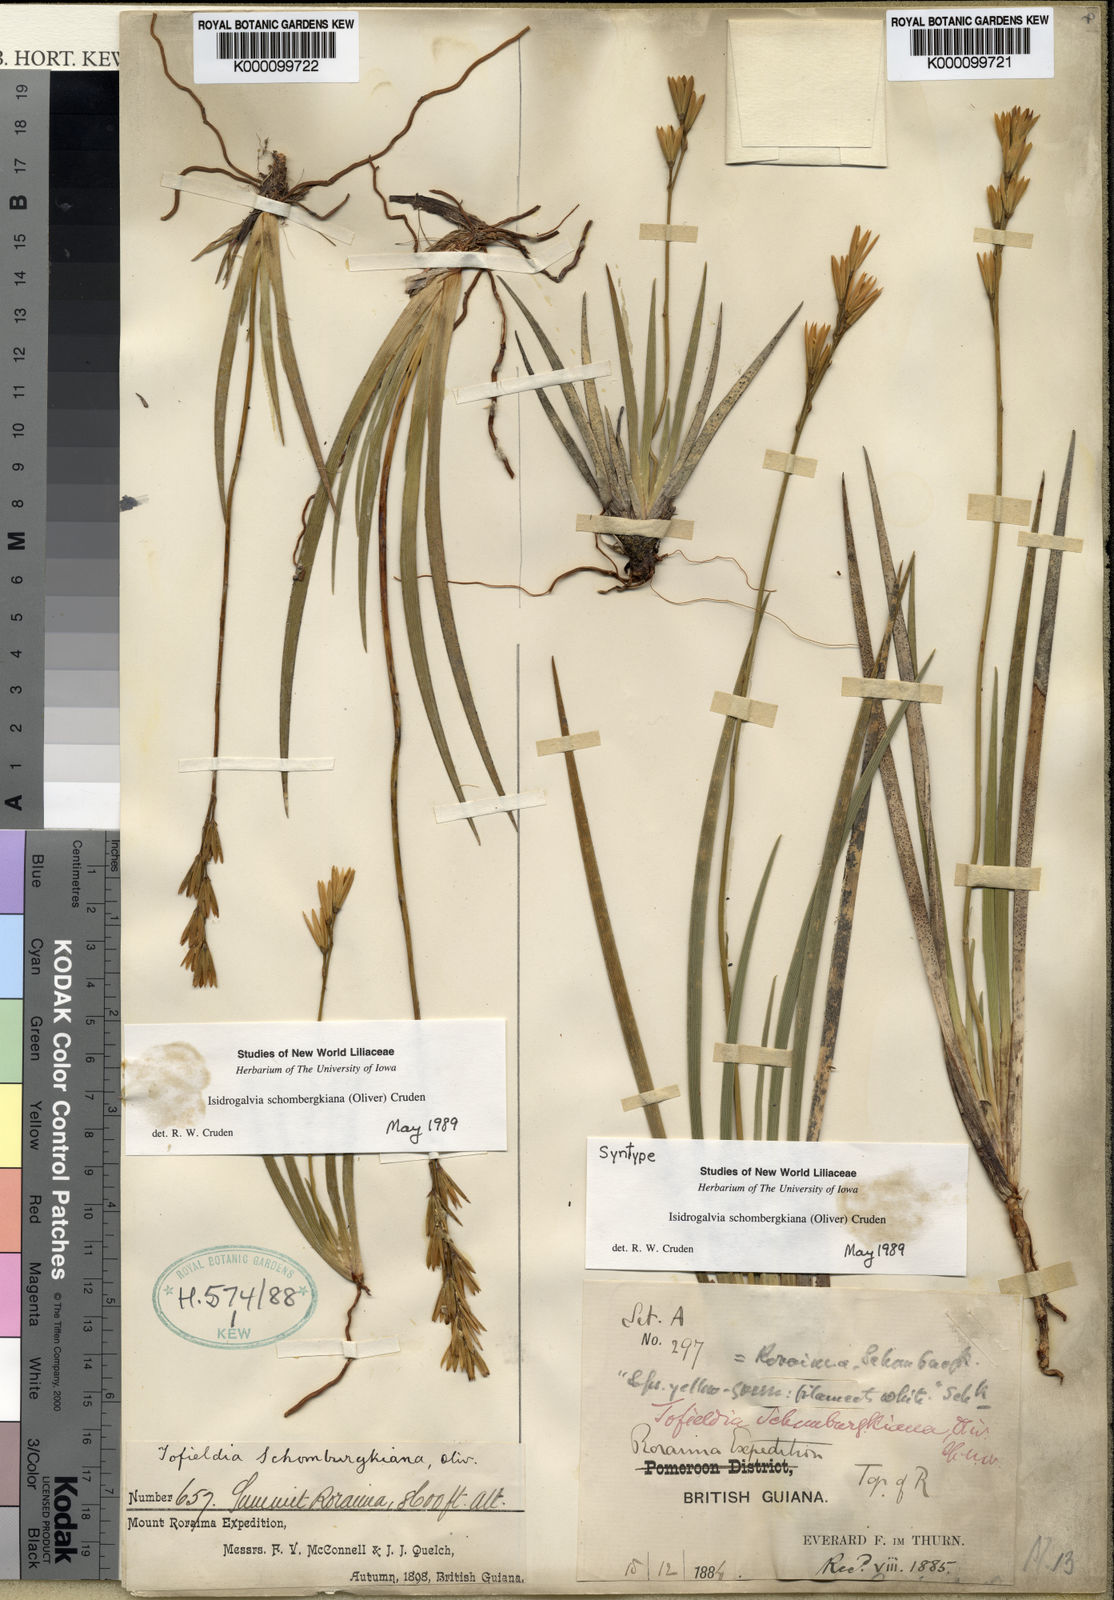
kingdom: Plantae
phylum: Tracheophyta
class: Liliopsida
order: Alismatales
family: Tofieldiaceae
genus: Tofieldia
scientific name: Tofieldia
